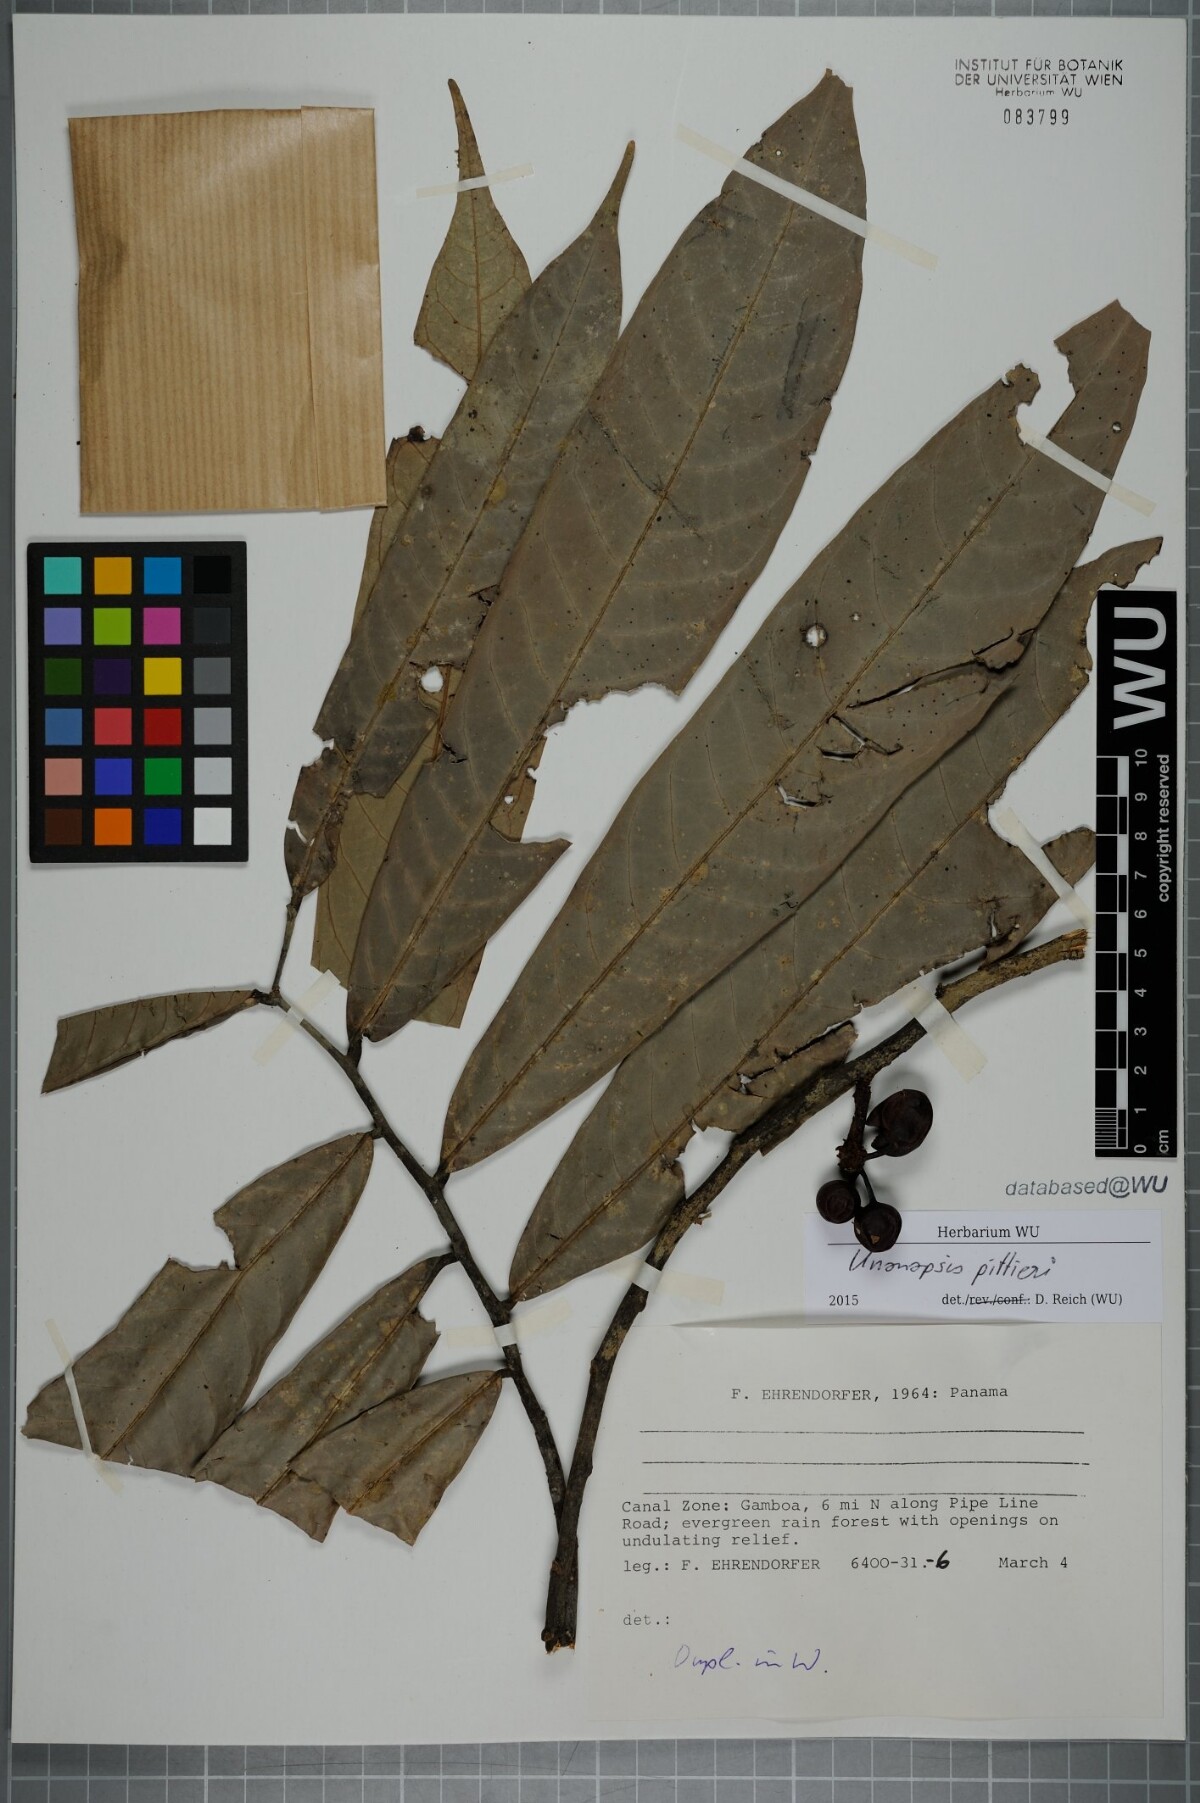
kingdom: Plantae
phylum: Tracheophyta
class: Magnoliopsida
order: Magnoliales
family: Annonaceae
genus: Unonopsis
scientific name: Unonopsis pittieri
